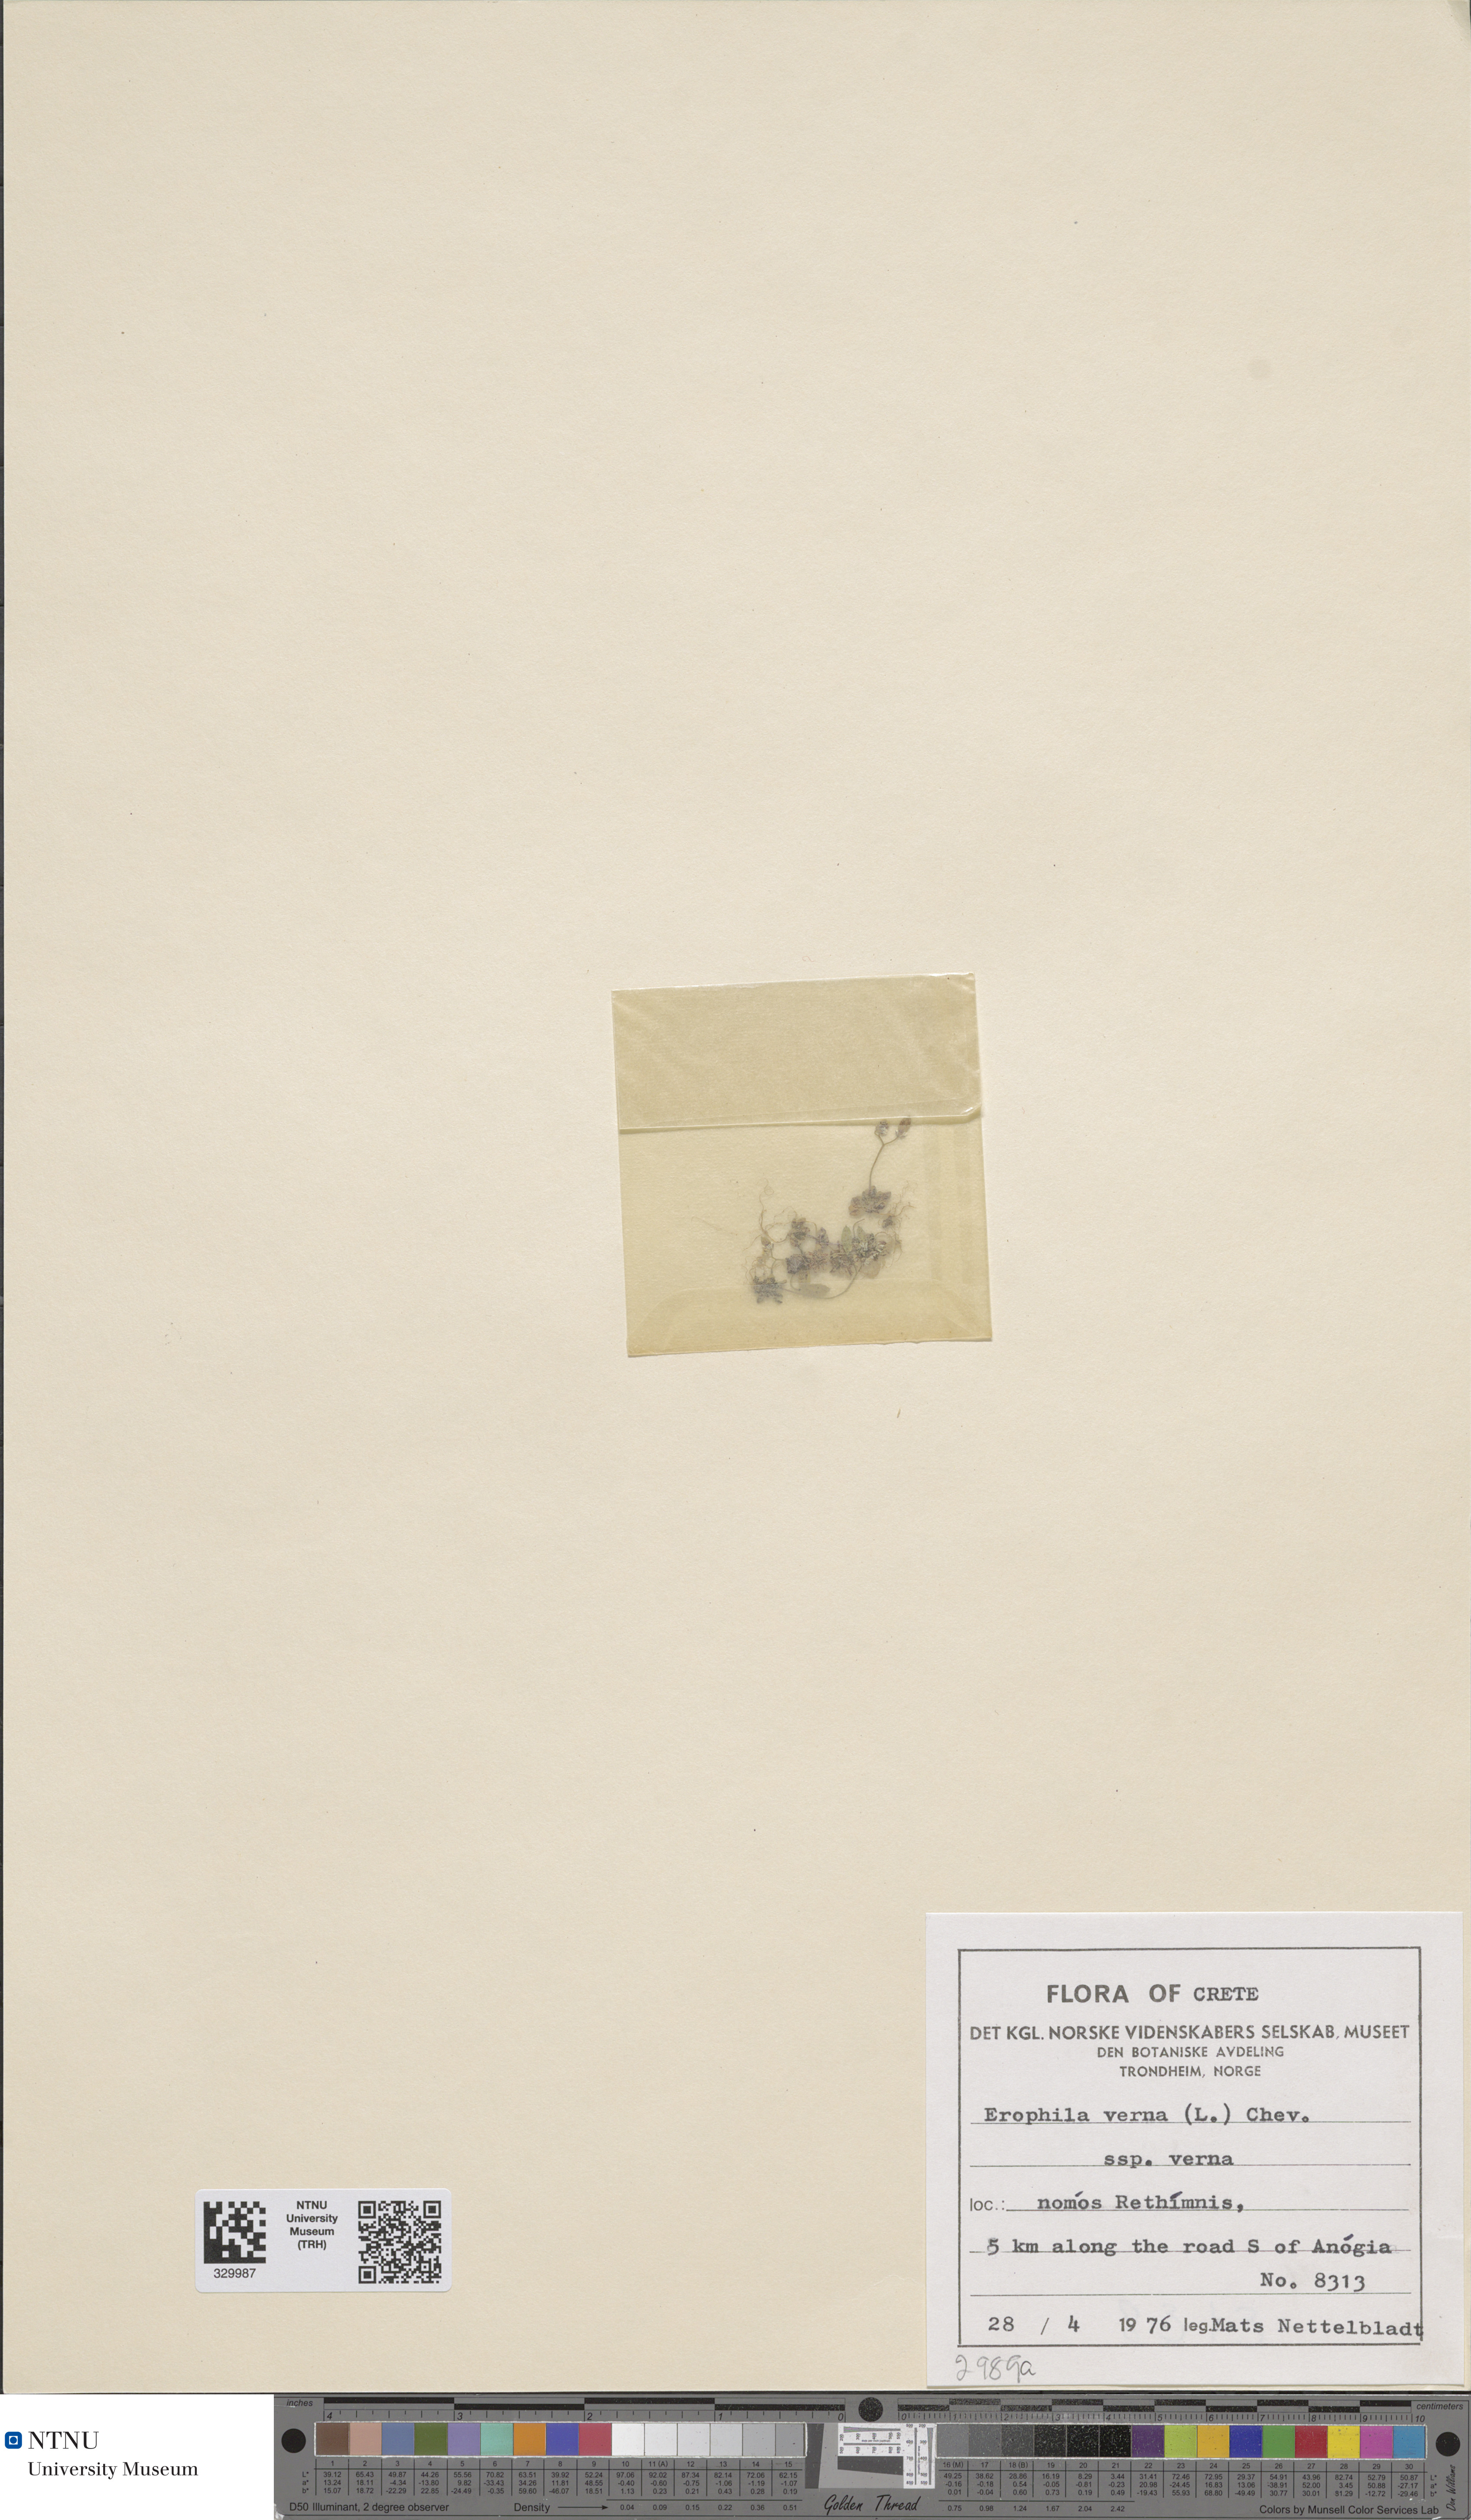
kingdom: Plantae
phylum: Tracheophyta
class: Magnoliopsida
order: Brassicales
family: Brassicaceae
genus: Draba
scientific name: Draba verna
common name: Spring draba
